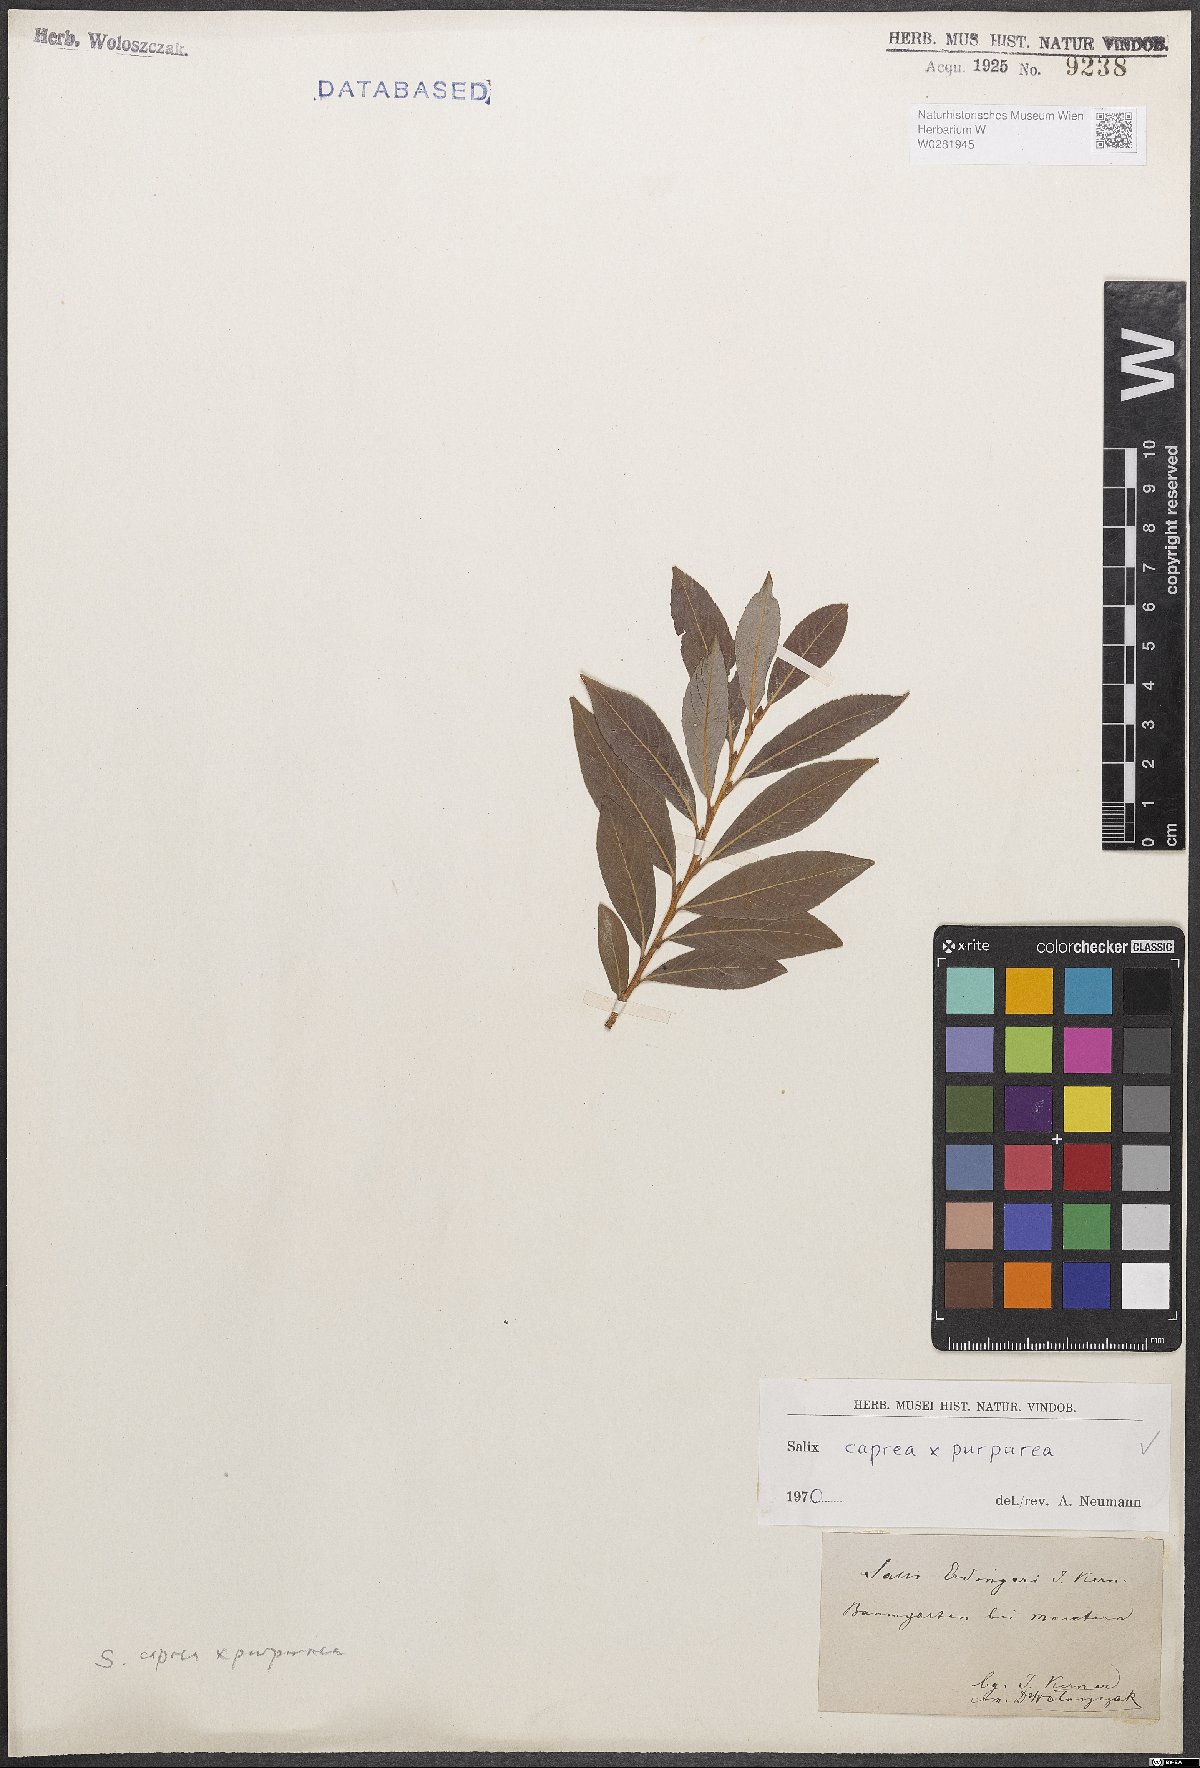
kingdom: Plantae
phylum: Tracheophyta
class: Magnoliopsida
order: Malpighiales
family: Salicaceae
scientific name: Salicaceae
